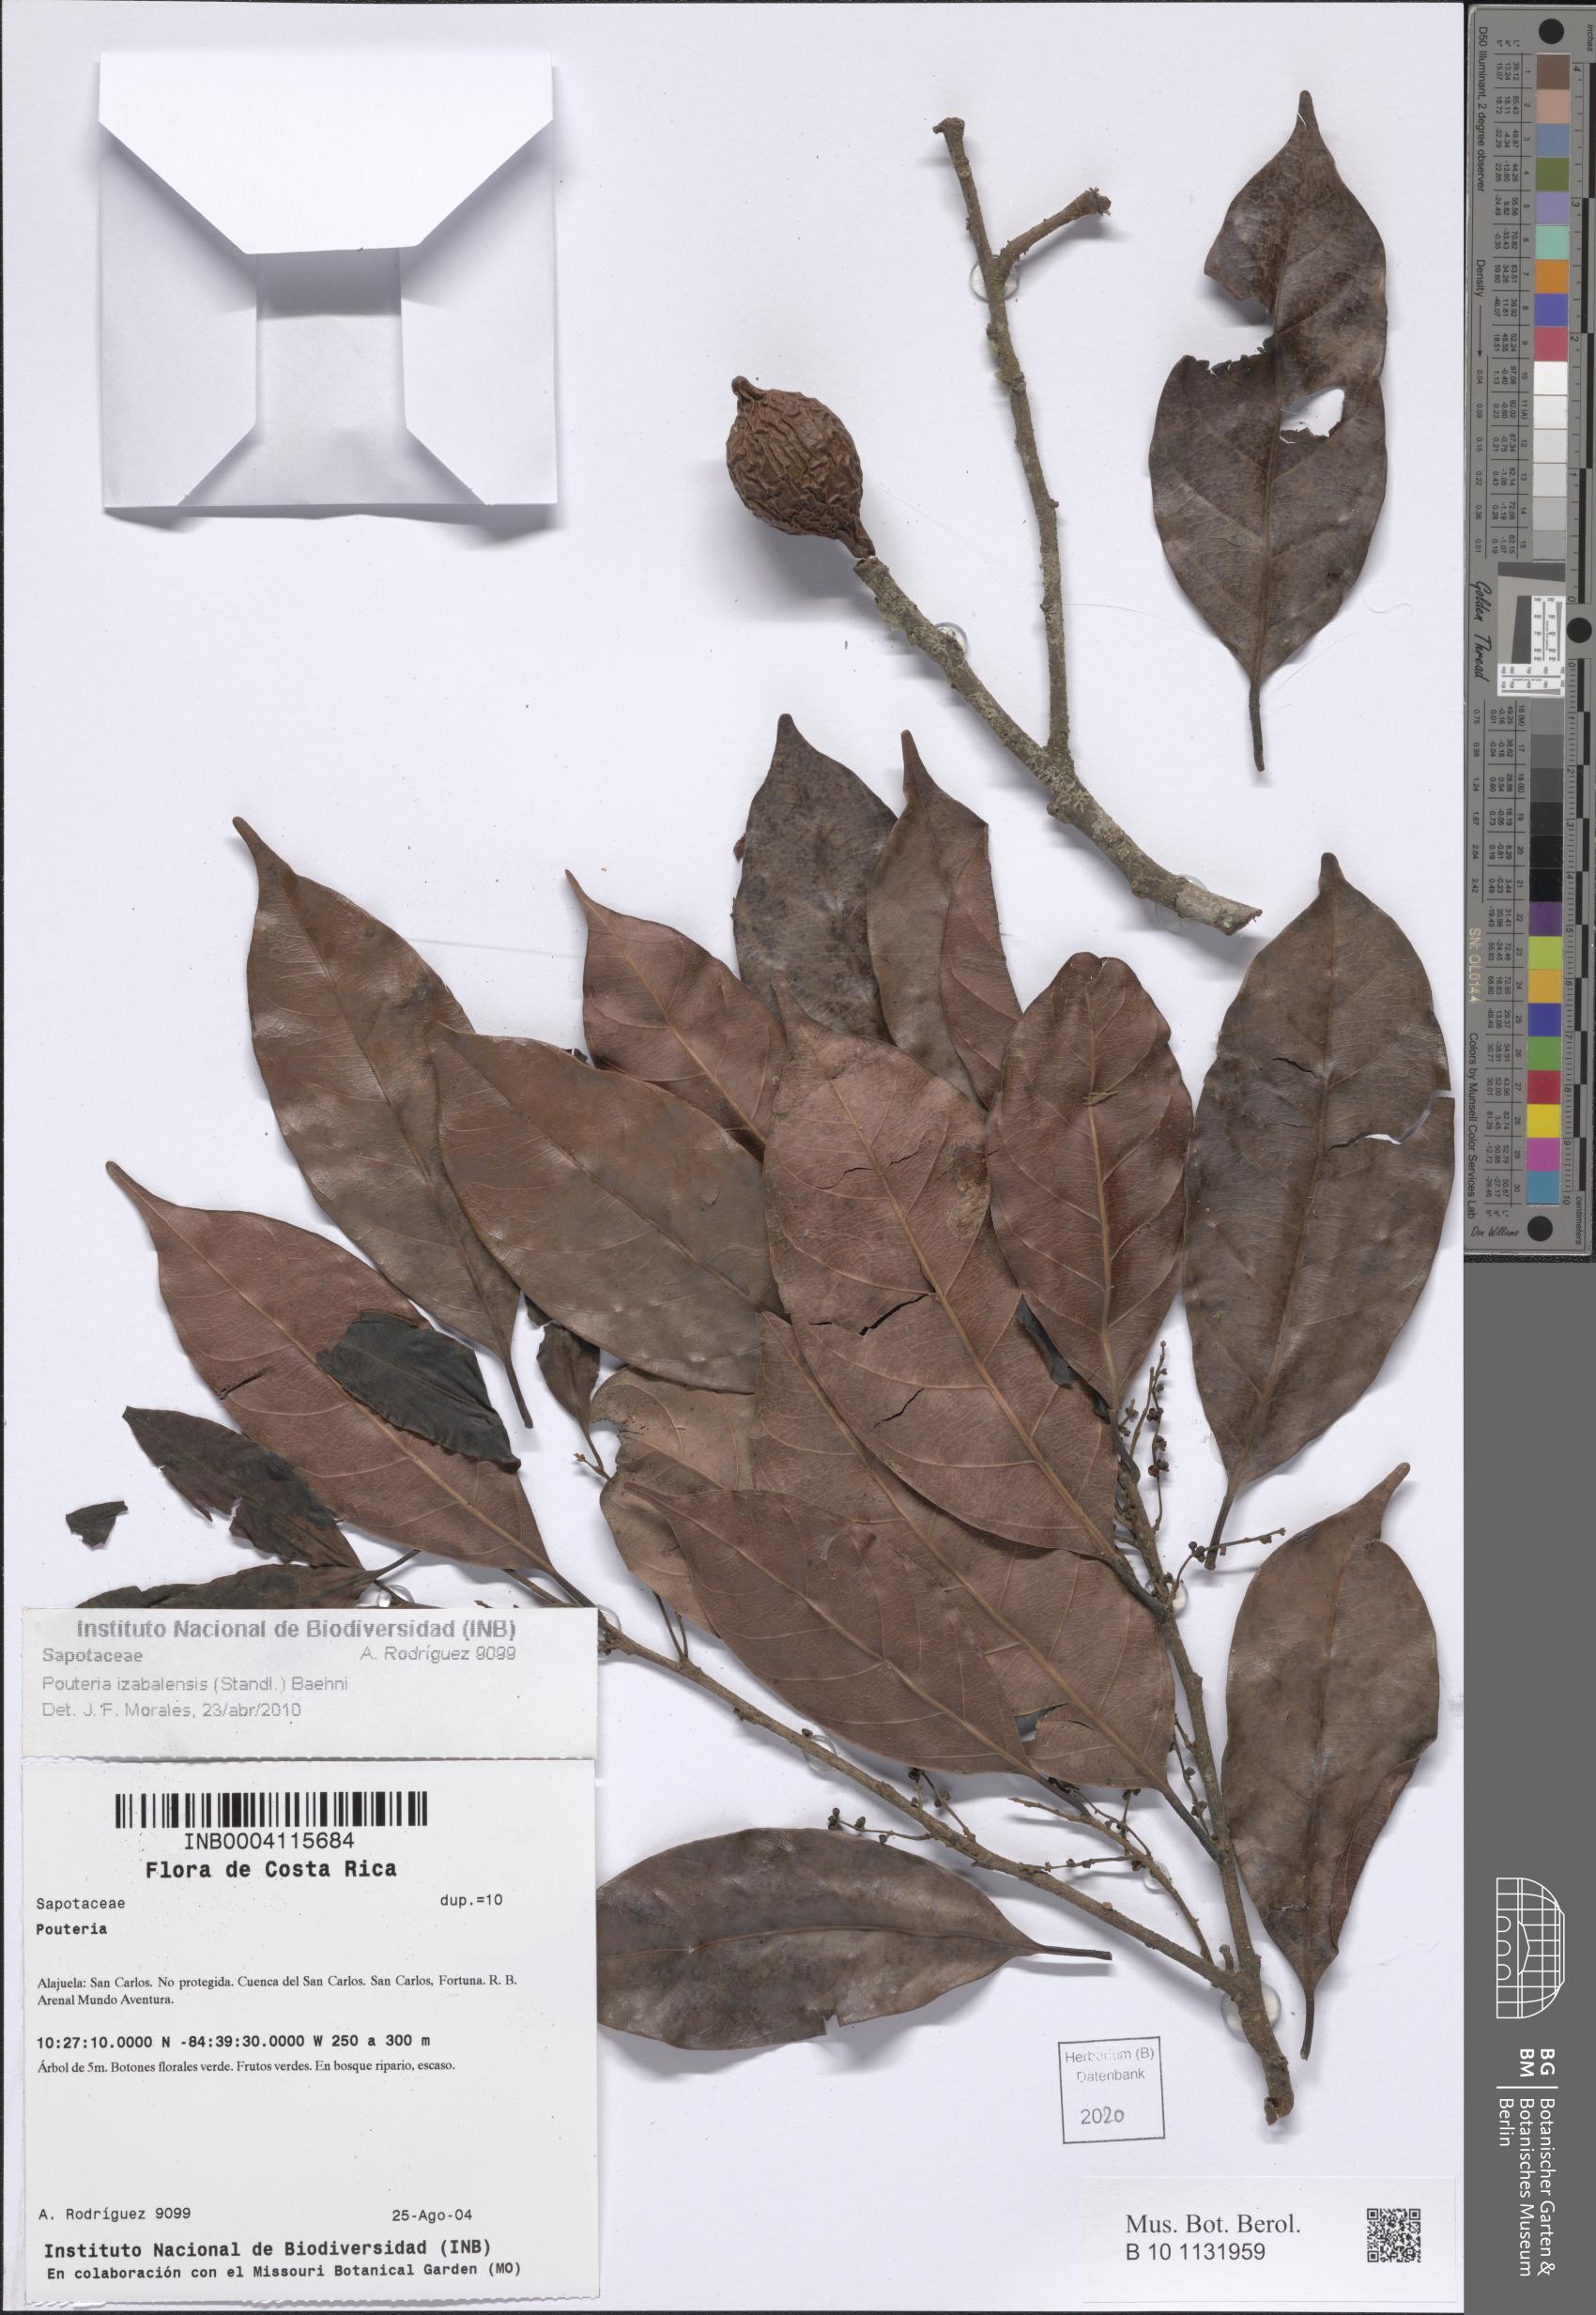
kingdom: Plantae
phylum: Tracheophyta
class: Magnoliopsida
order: Ericales
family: Sapotaceae
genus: Pouteria
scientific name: Pouteria izabalensis
